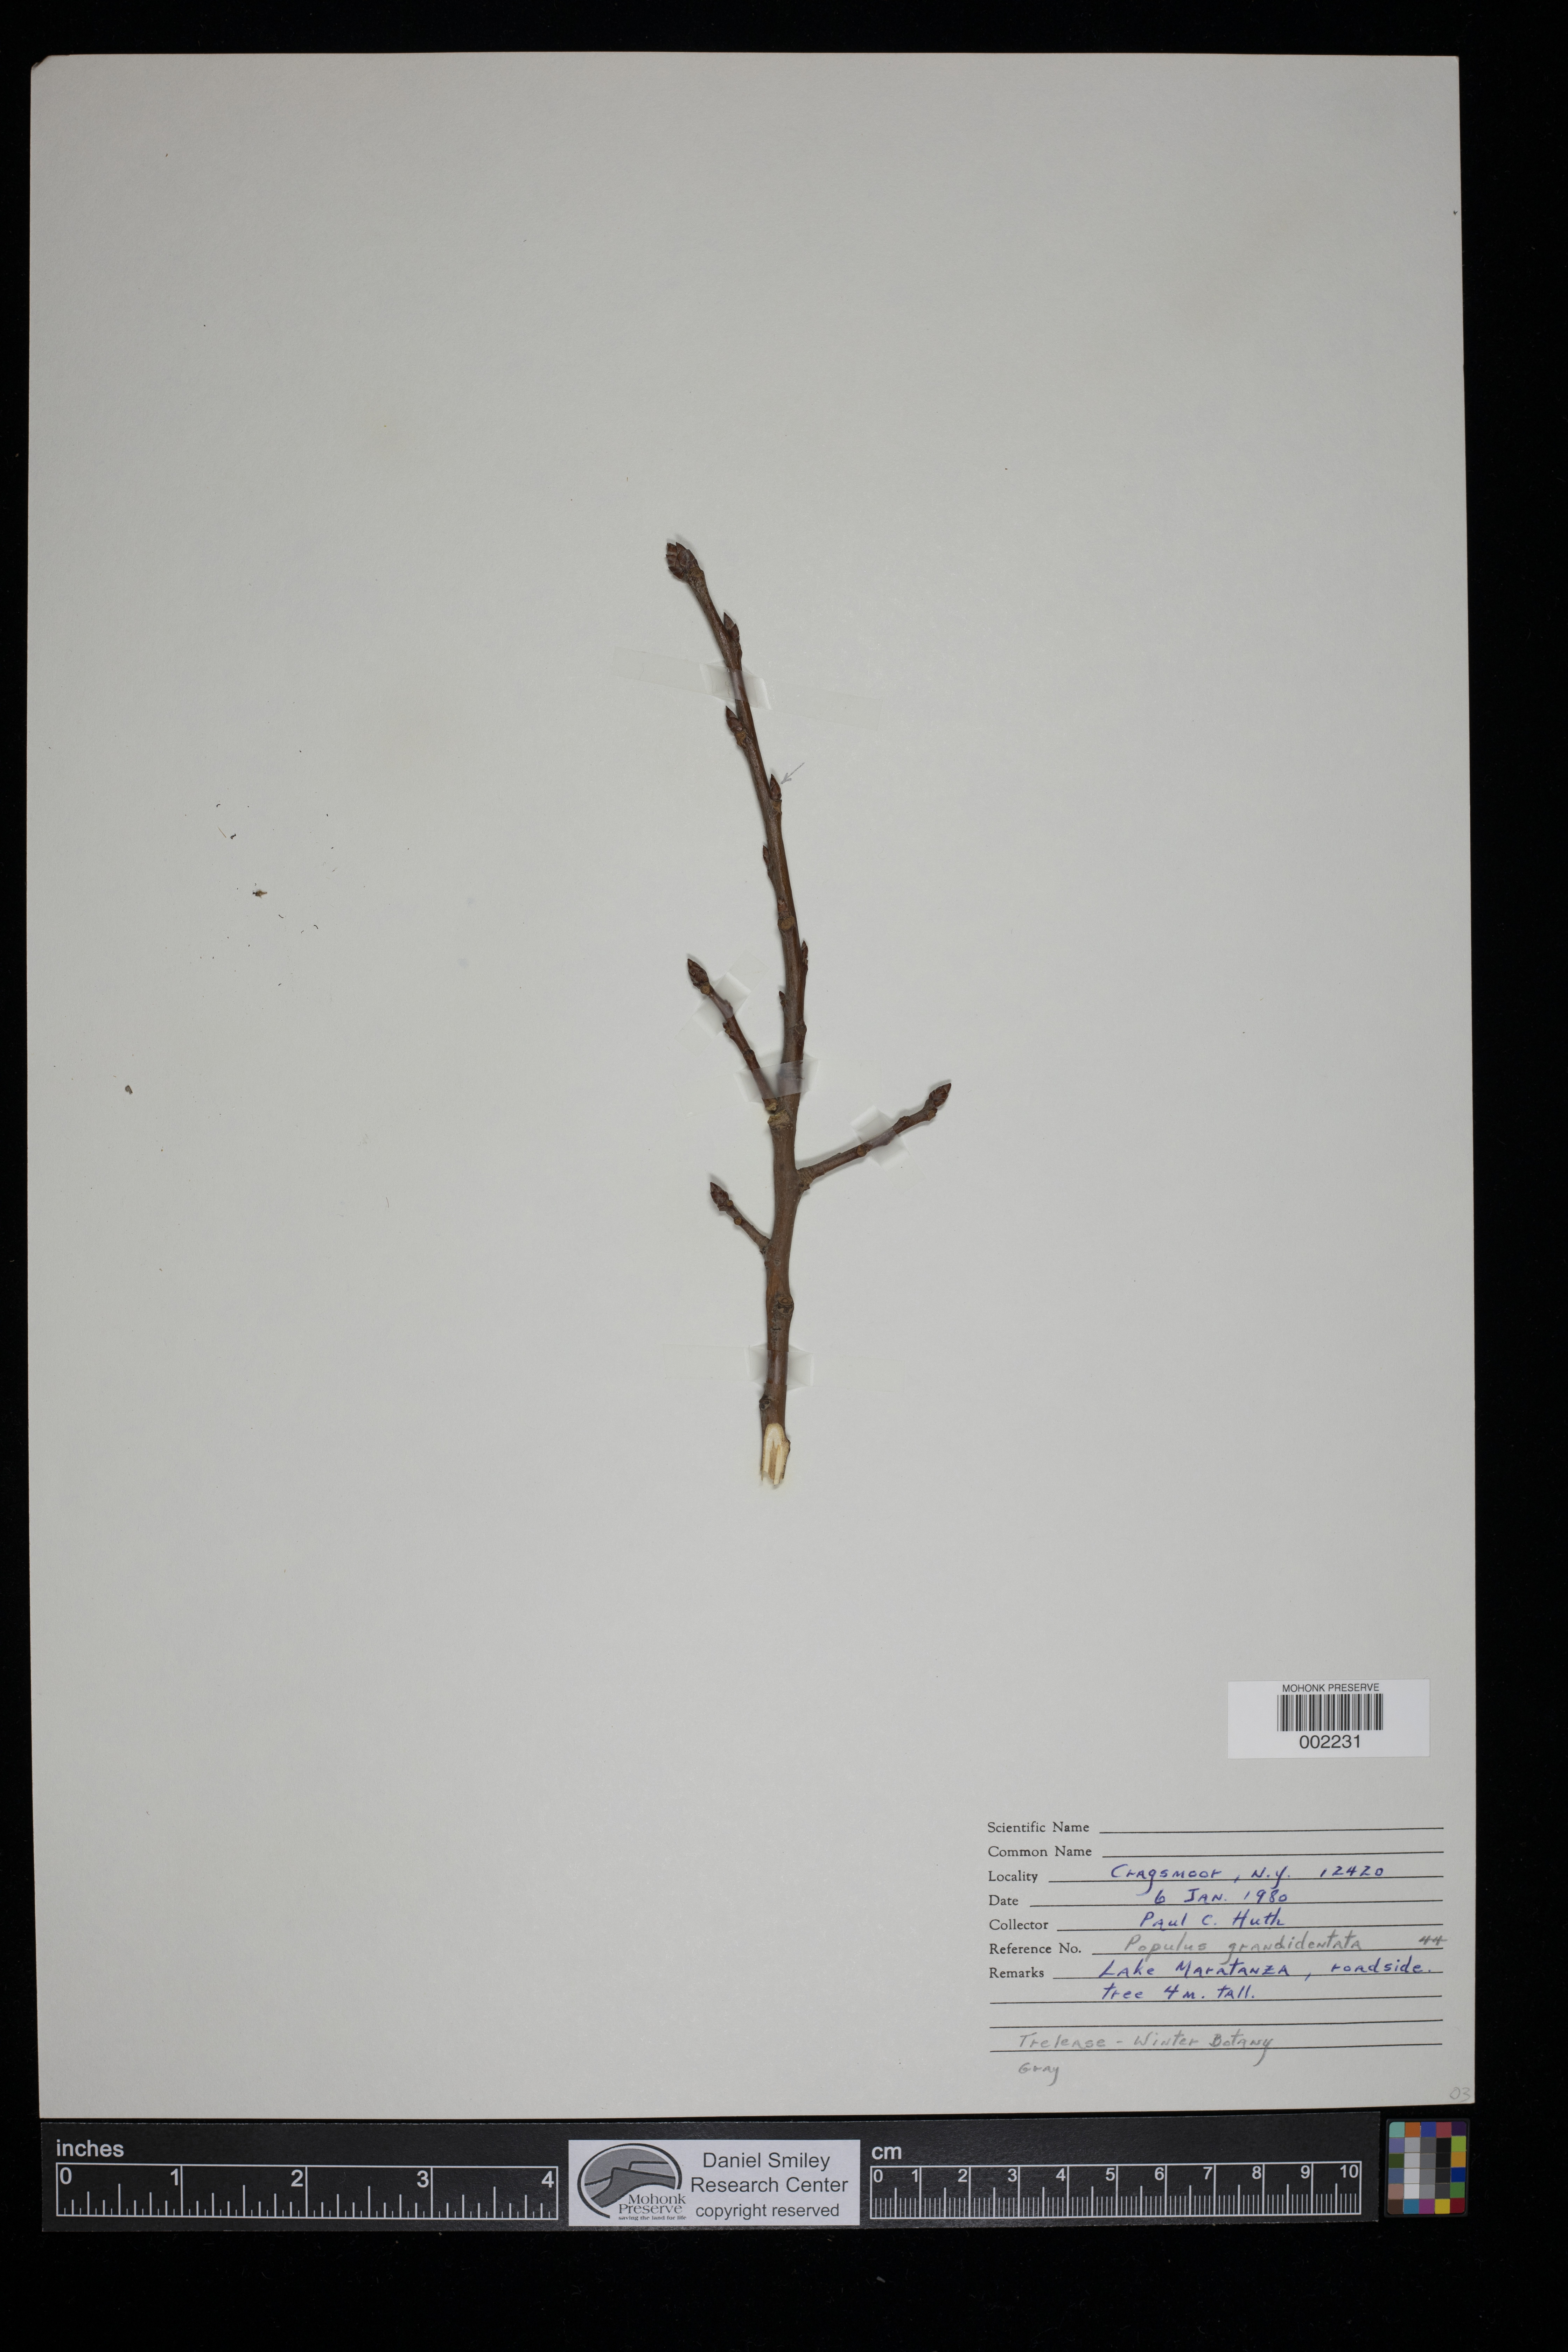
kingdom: Plantae
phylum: Tracheophyta
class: Magnoliopsida
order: Malpighiales
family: Salicaceae
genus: Populus
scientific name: Populus grandidentata
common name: Bigtooth aspen
